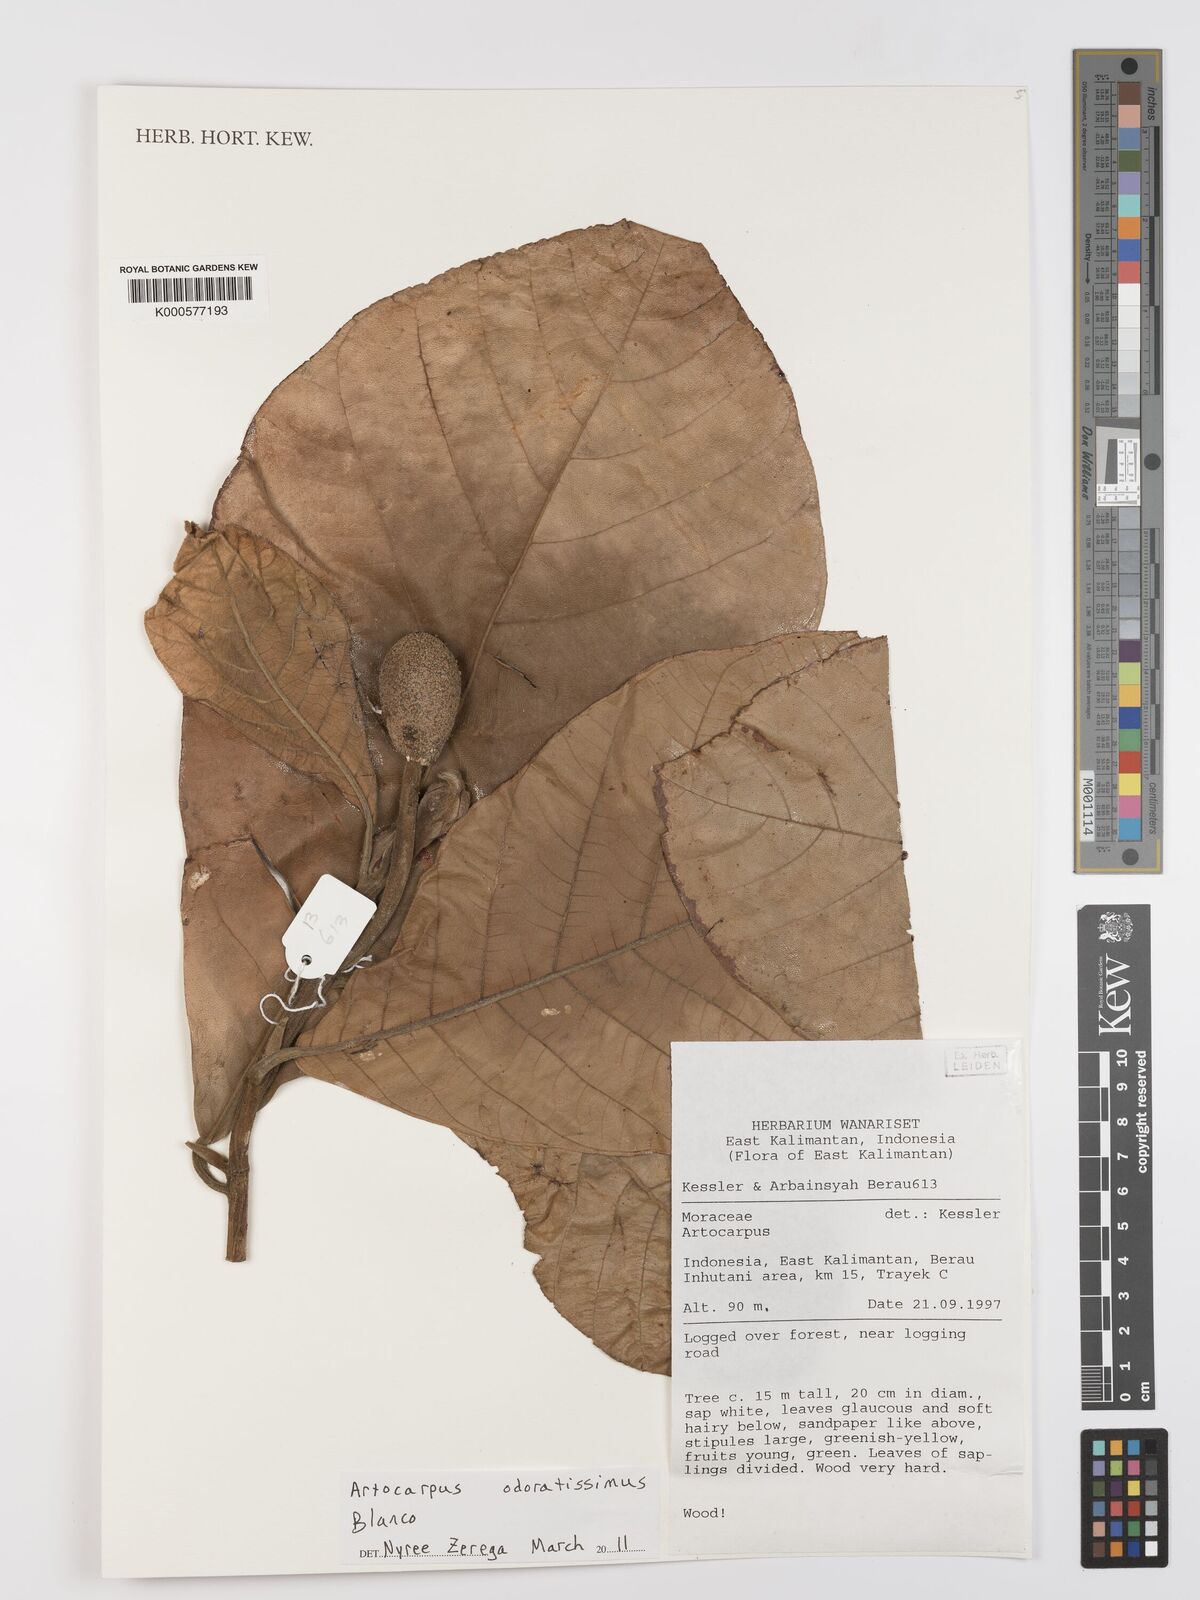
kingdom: Plantae
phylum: Tracheophyta
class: Magnoliopsida
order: Rosales
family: Moraceae
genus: Artocarpus
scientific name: Artocarpus odoratissimus
